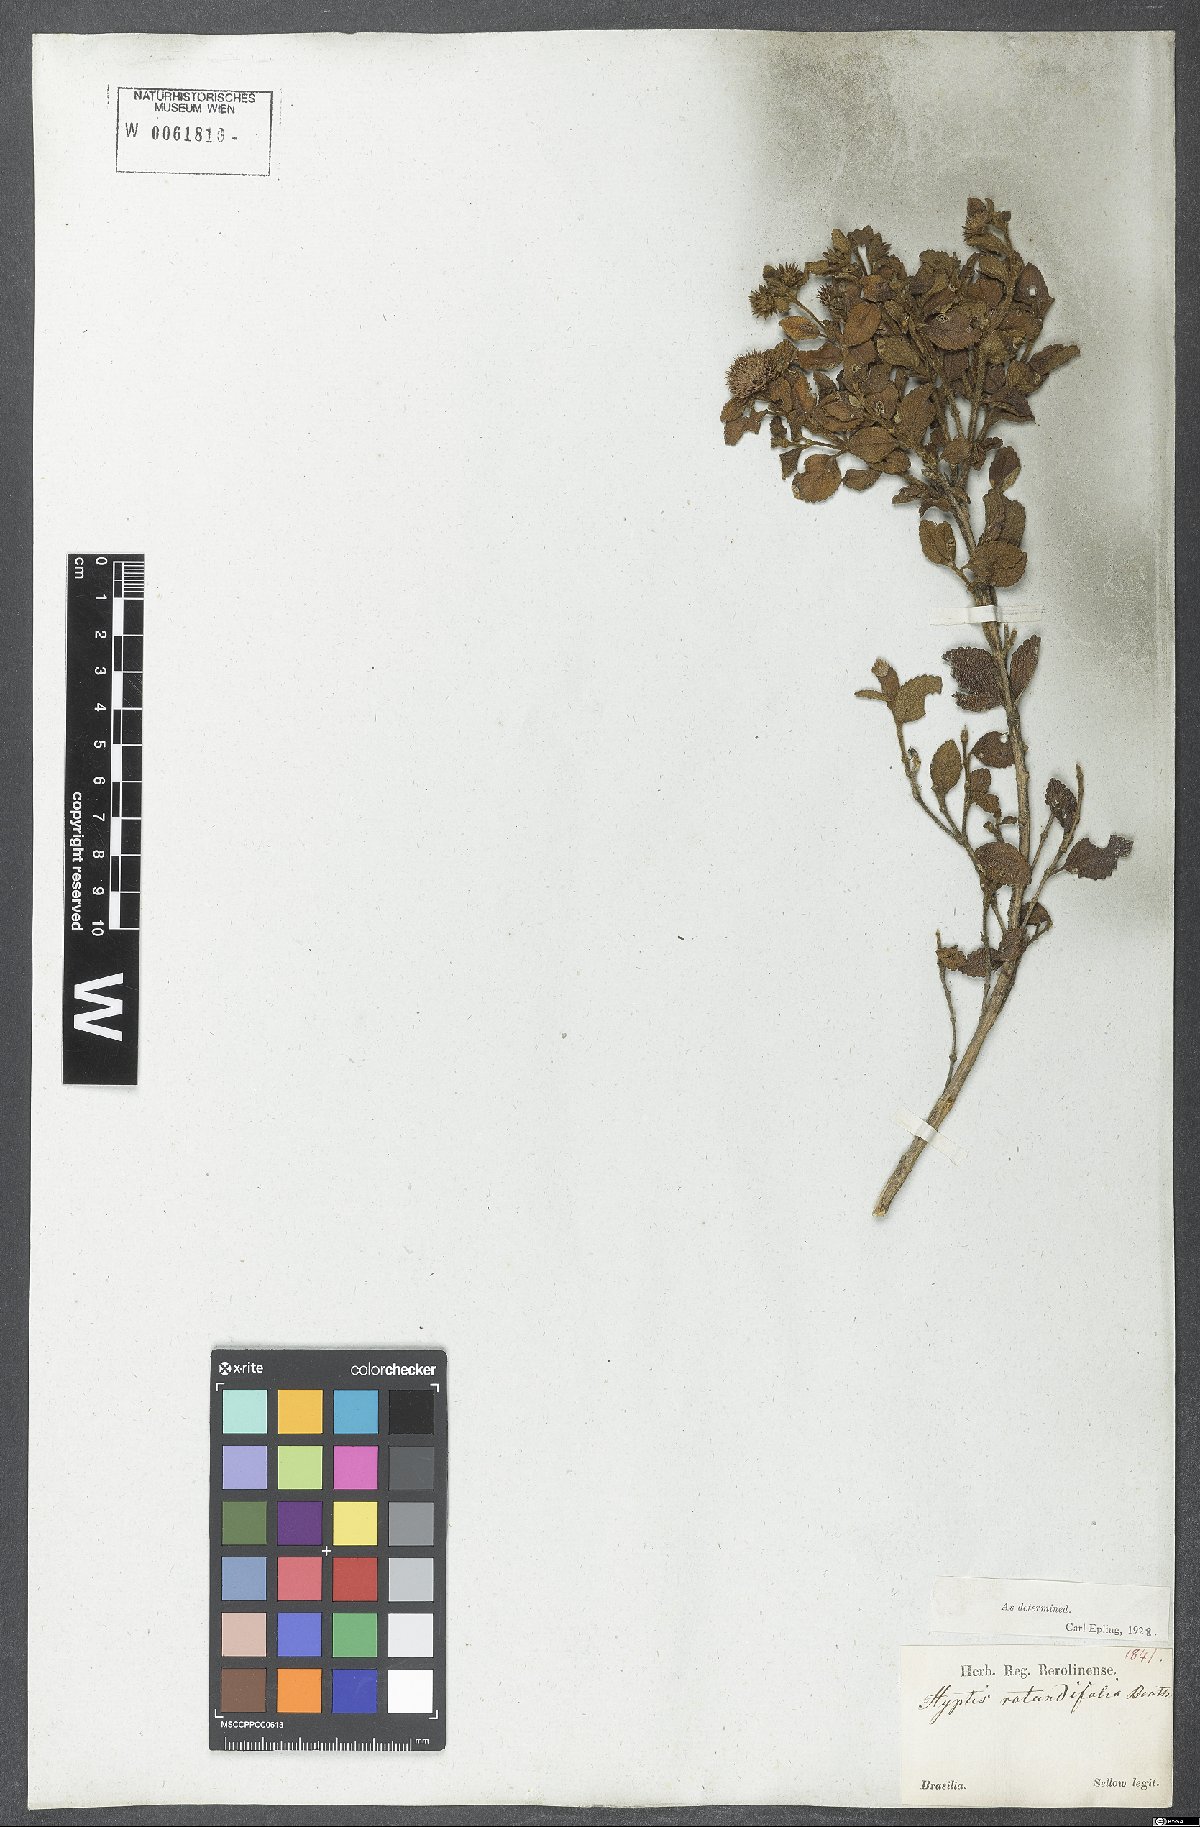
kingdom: Plantae
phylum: Tracheophyta
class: Magnoliopsida
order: Lamiales
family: Lamiaceae
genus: Hyptis
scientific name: Hyptis rotundifolia
